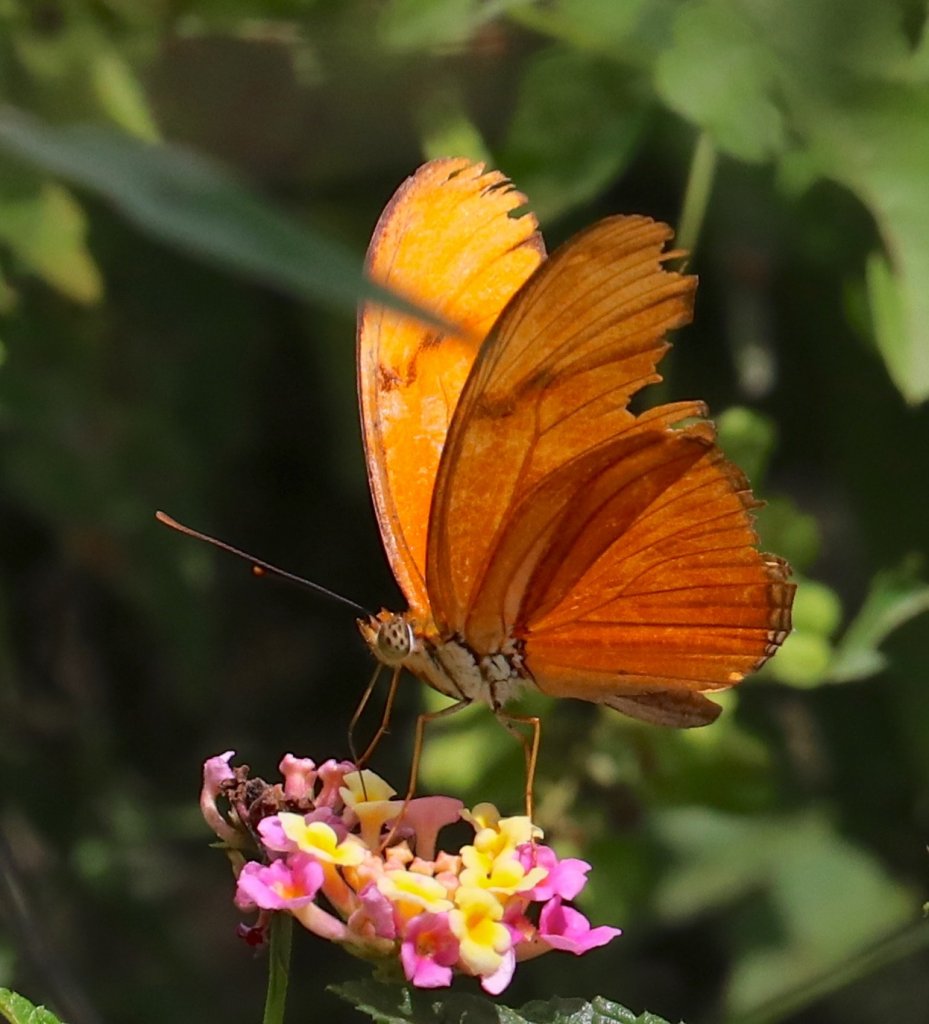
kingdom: Animalia
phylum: Arthropoda
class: Insecta
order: Lepidoptera
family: Nymphalidae
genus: Dryas
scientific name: Dryas iulia
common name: Julia
